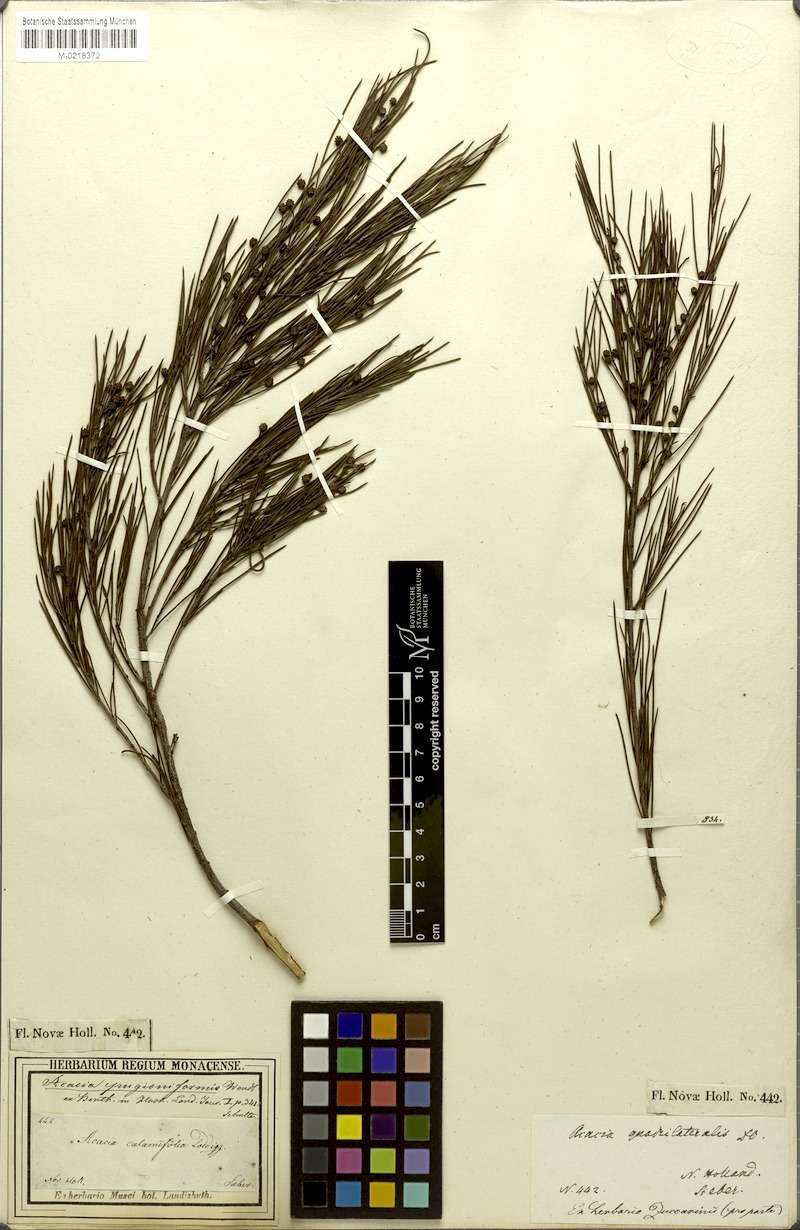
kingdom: Plantae
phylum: Tracheophyta
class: Magnoliopsida
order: Fabales
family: Fabaceae
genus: Acacia
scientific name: Acacia quadrilateralis
